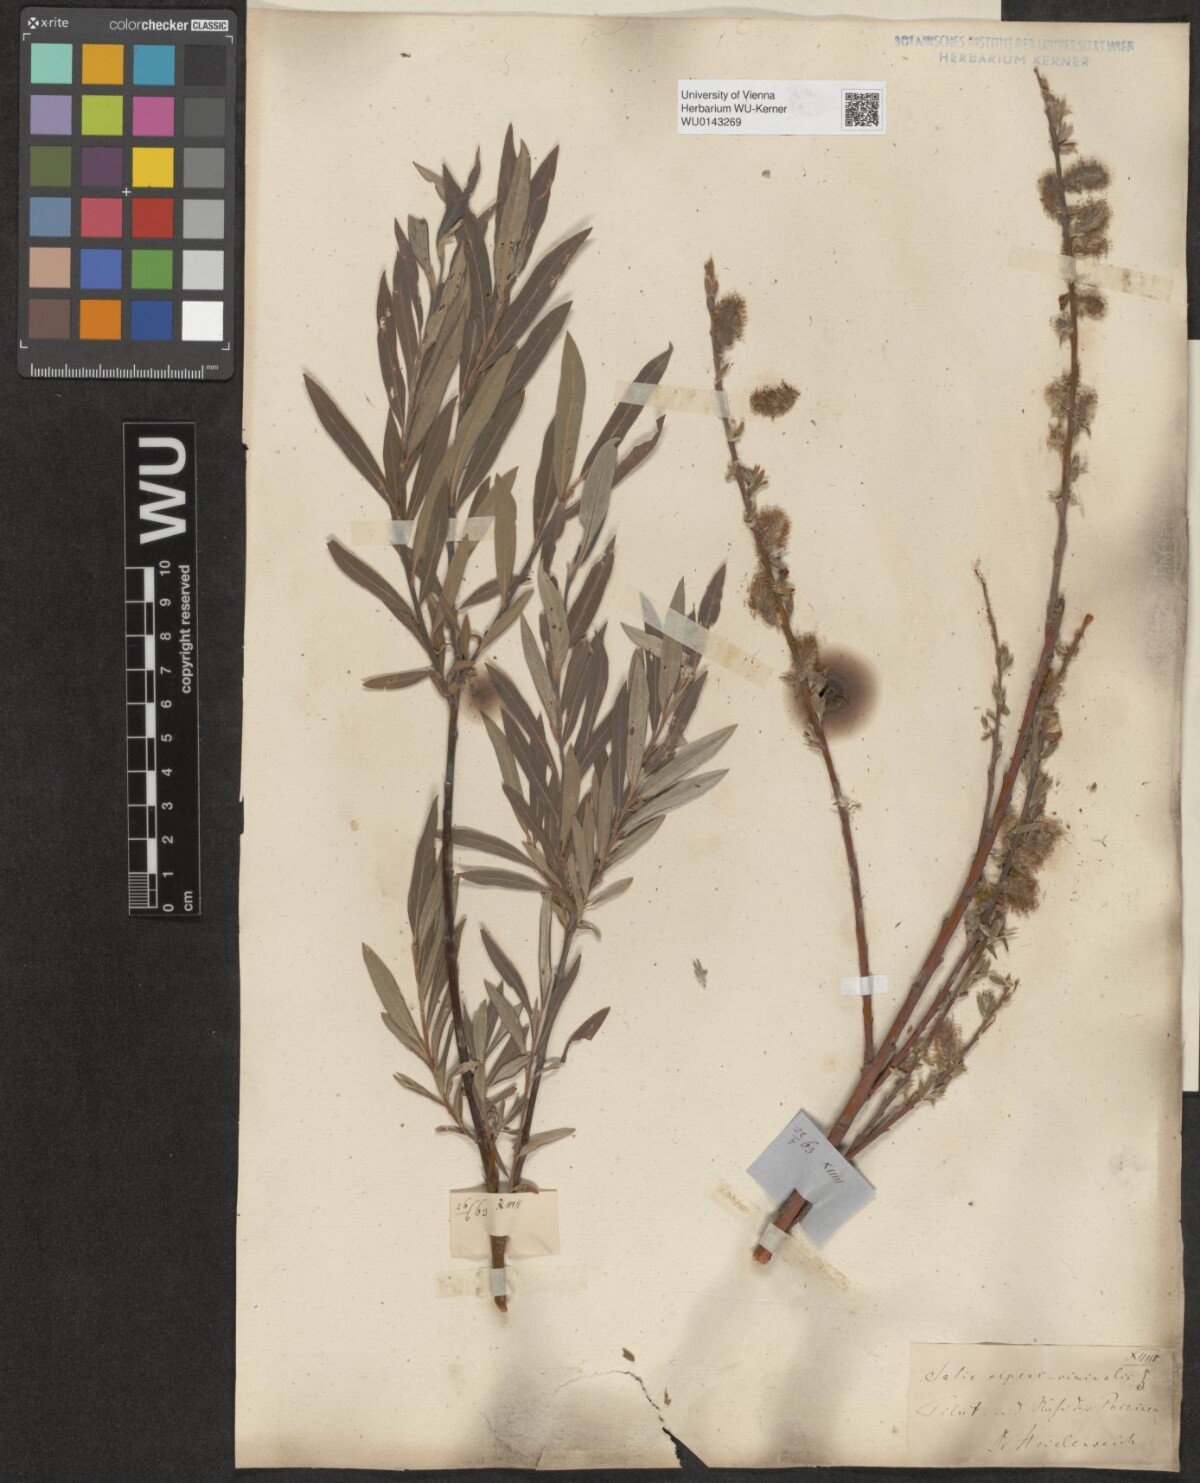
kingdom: Plantae
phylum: Tracheophyta
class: Magnoliopsida
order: Malpighiales
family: Salicaceae
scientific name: Salicaceae
